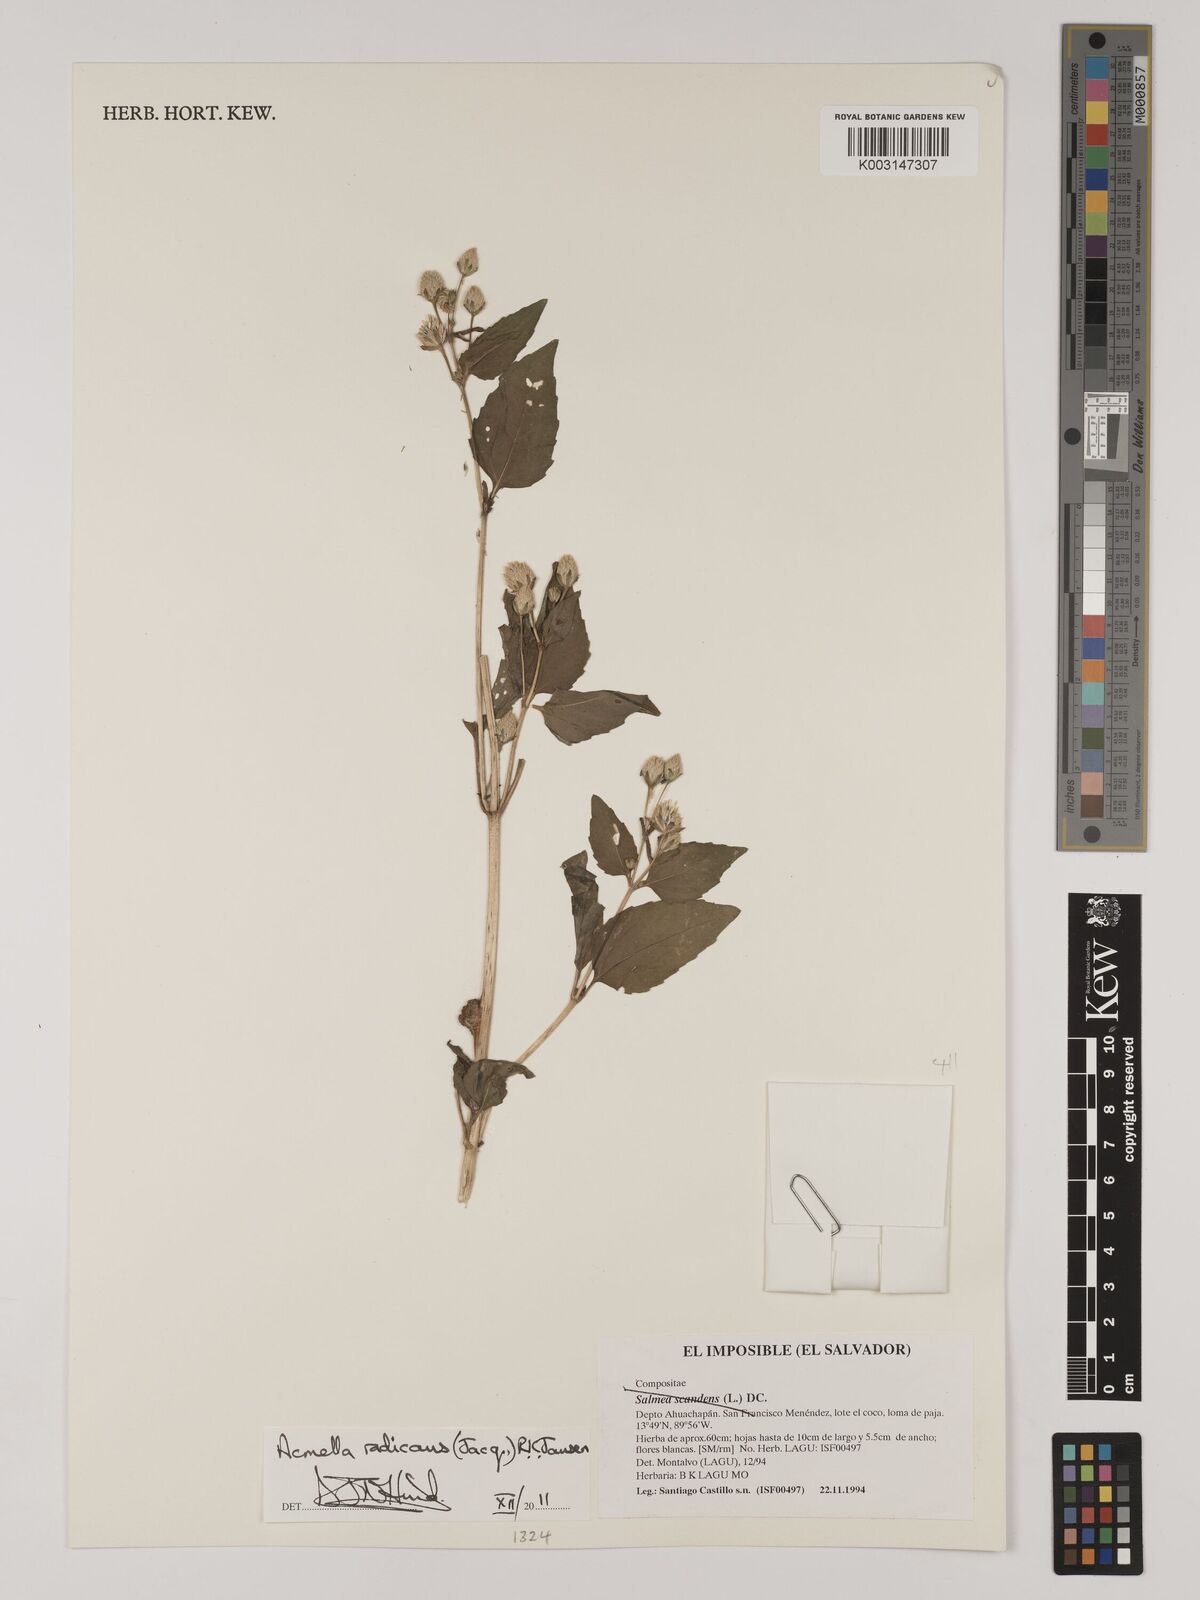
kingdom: Plantae
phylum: Tracheophyta
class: Magnoliopsida
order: Asterales
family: Asteraceae
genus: Acmella
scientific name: Acmella radicans
